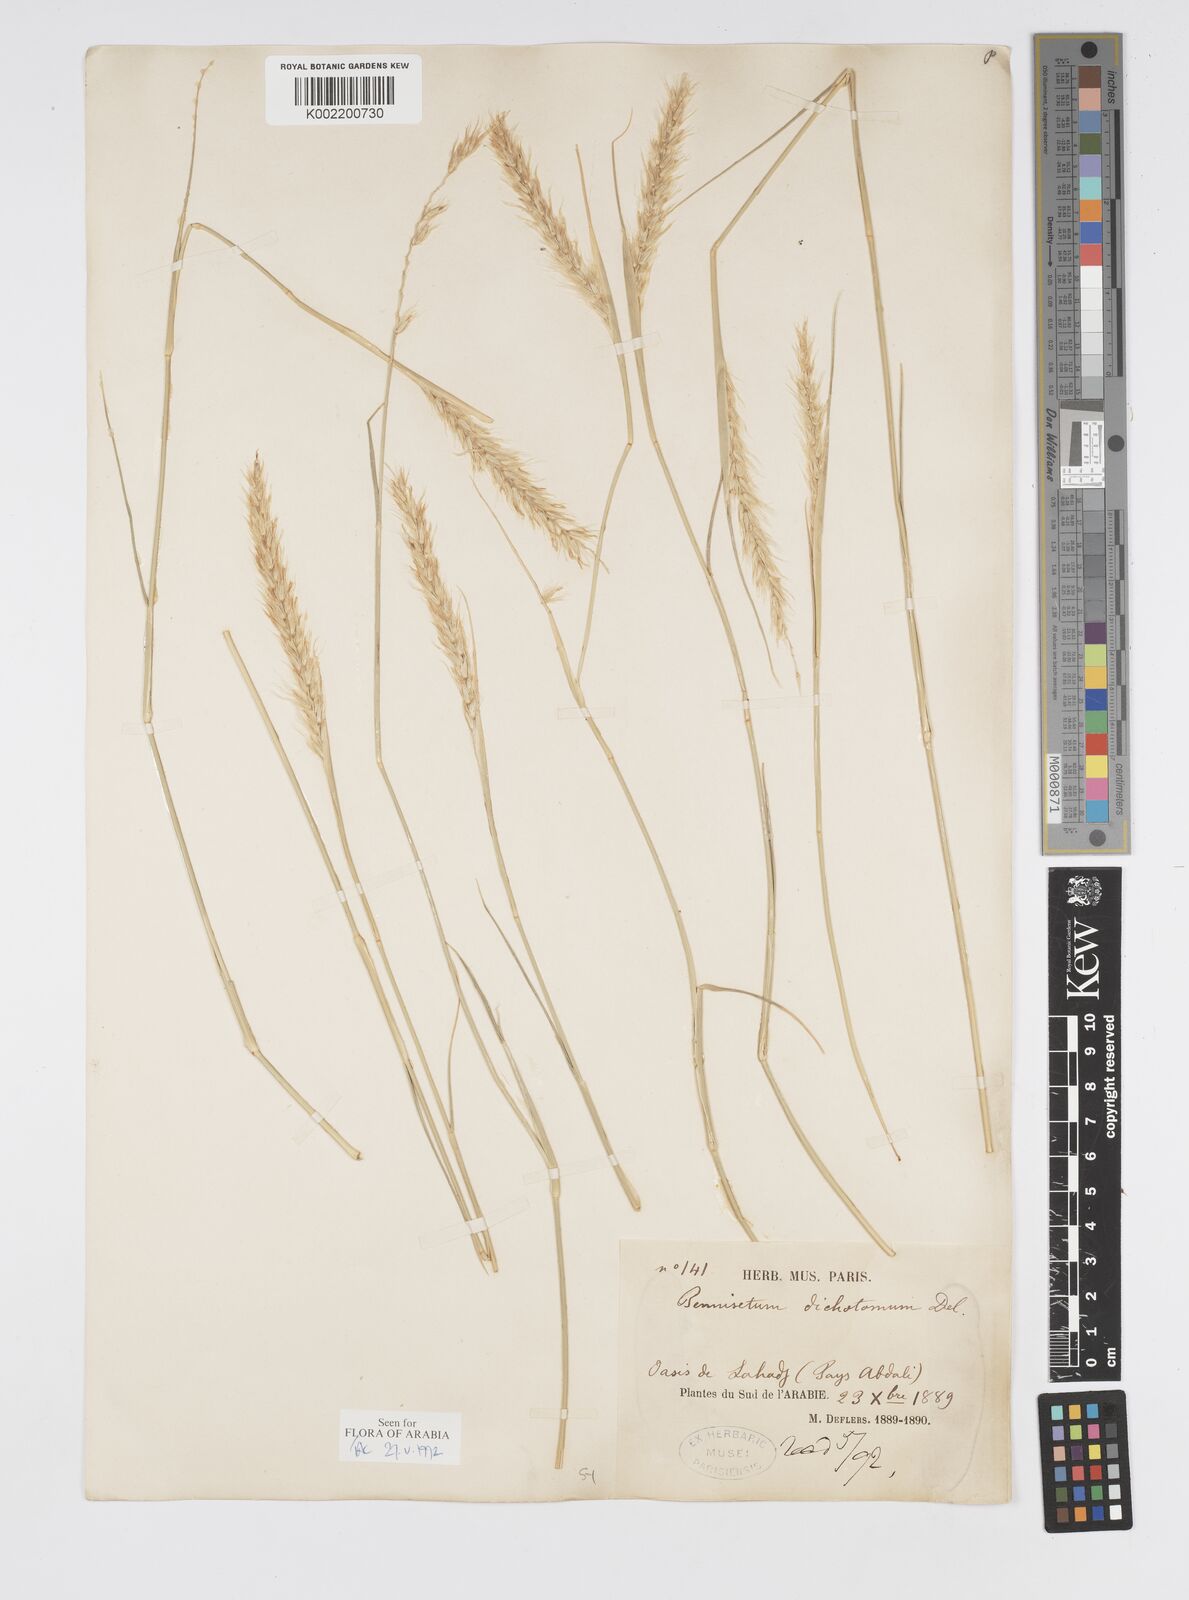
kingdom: Plantae
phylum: Tracheophyta
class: Liliopsida
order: Poales
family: Poaceae
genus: Cenchrus
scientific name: Cenchrus divisus
